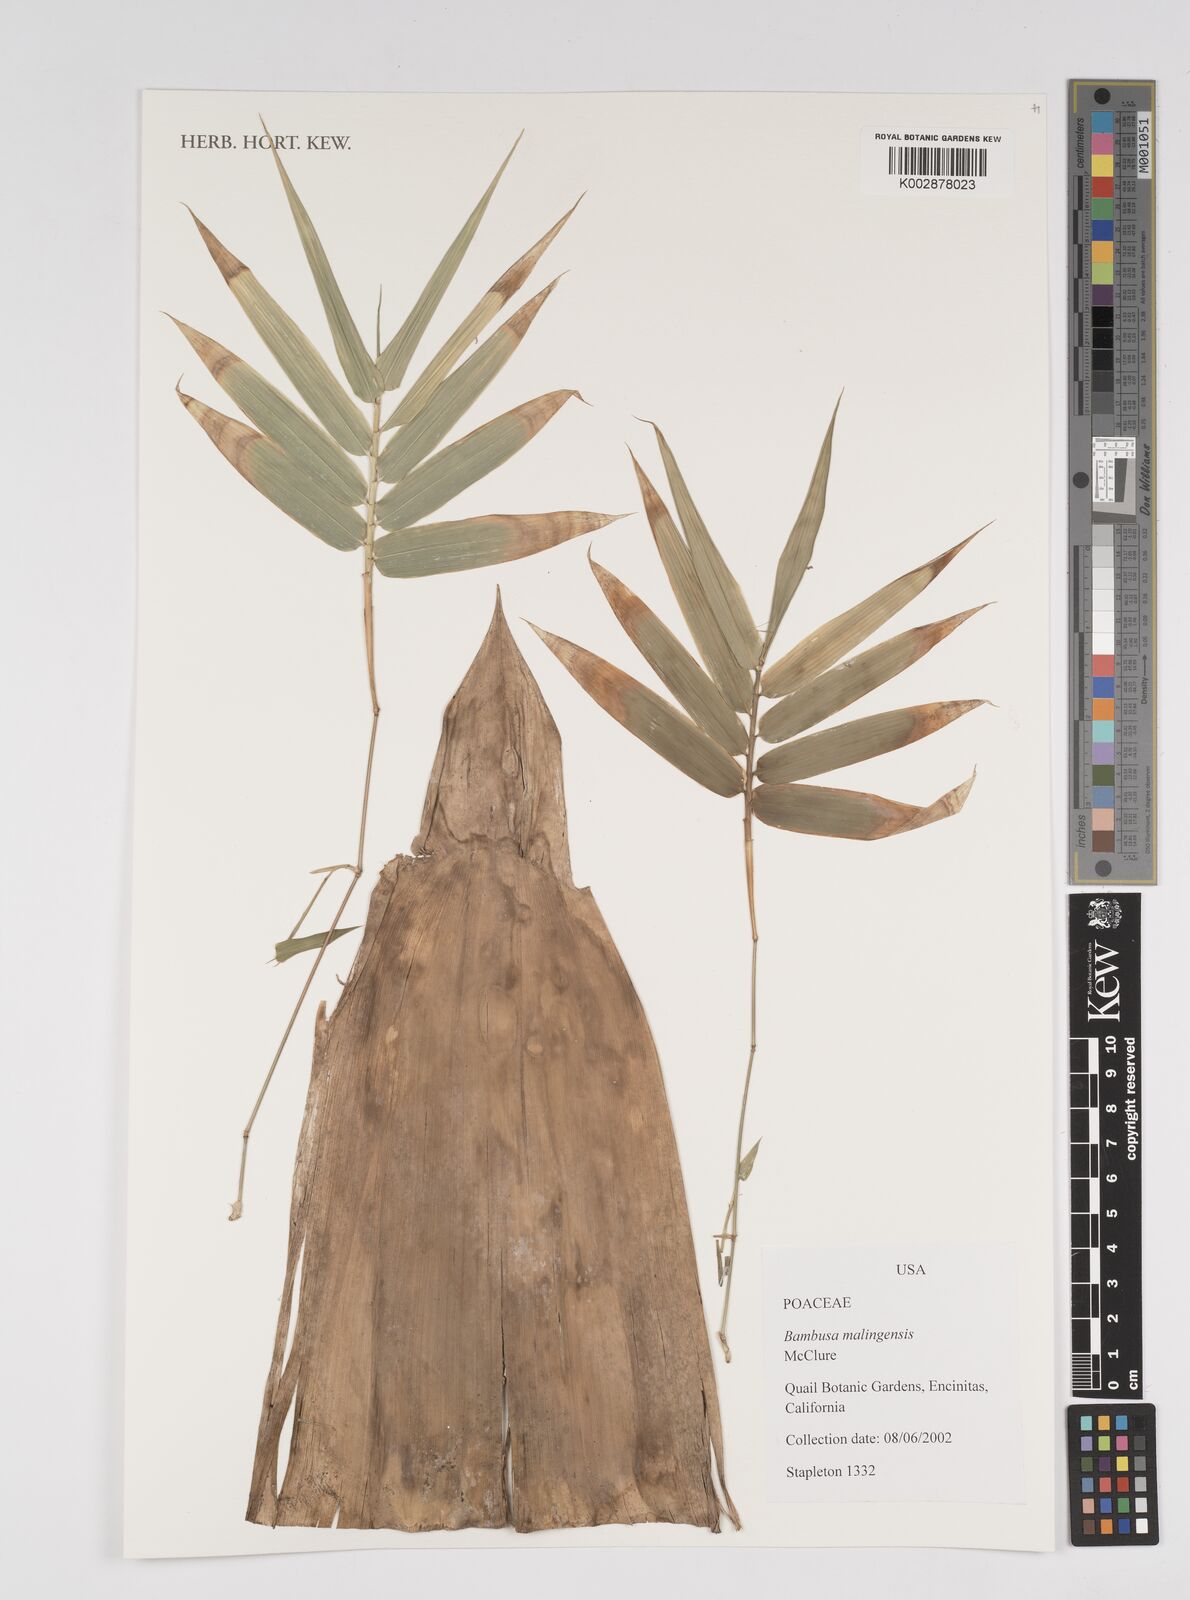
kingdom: Plantae
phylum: Tracheophyta
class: Liliopsida
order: Poales
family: Poaceae
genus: Bambusa
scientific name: Bambusa malingensis
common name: Maling bamboo
